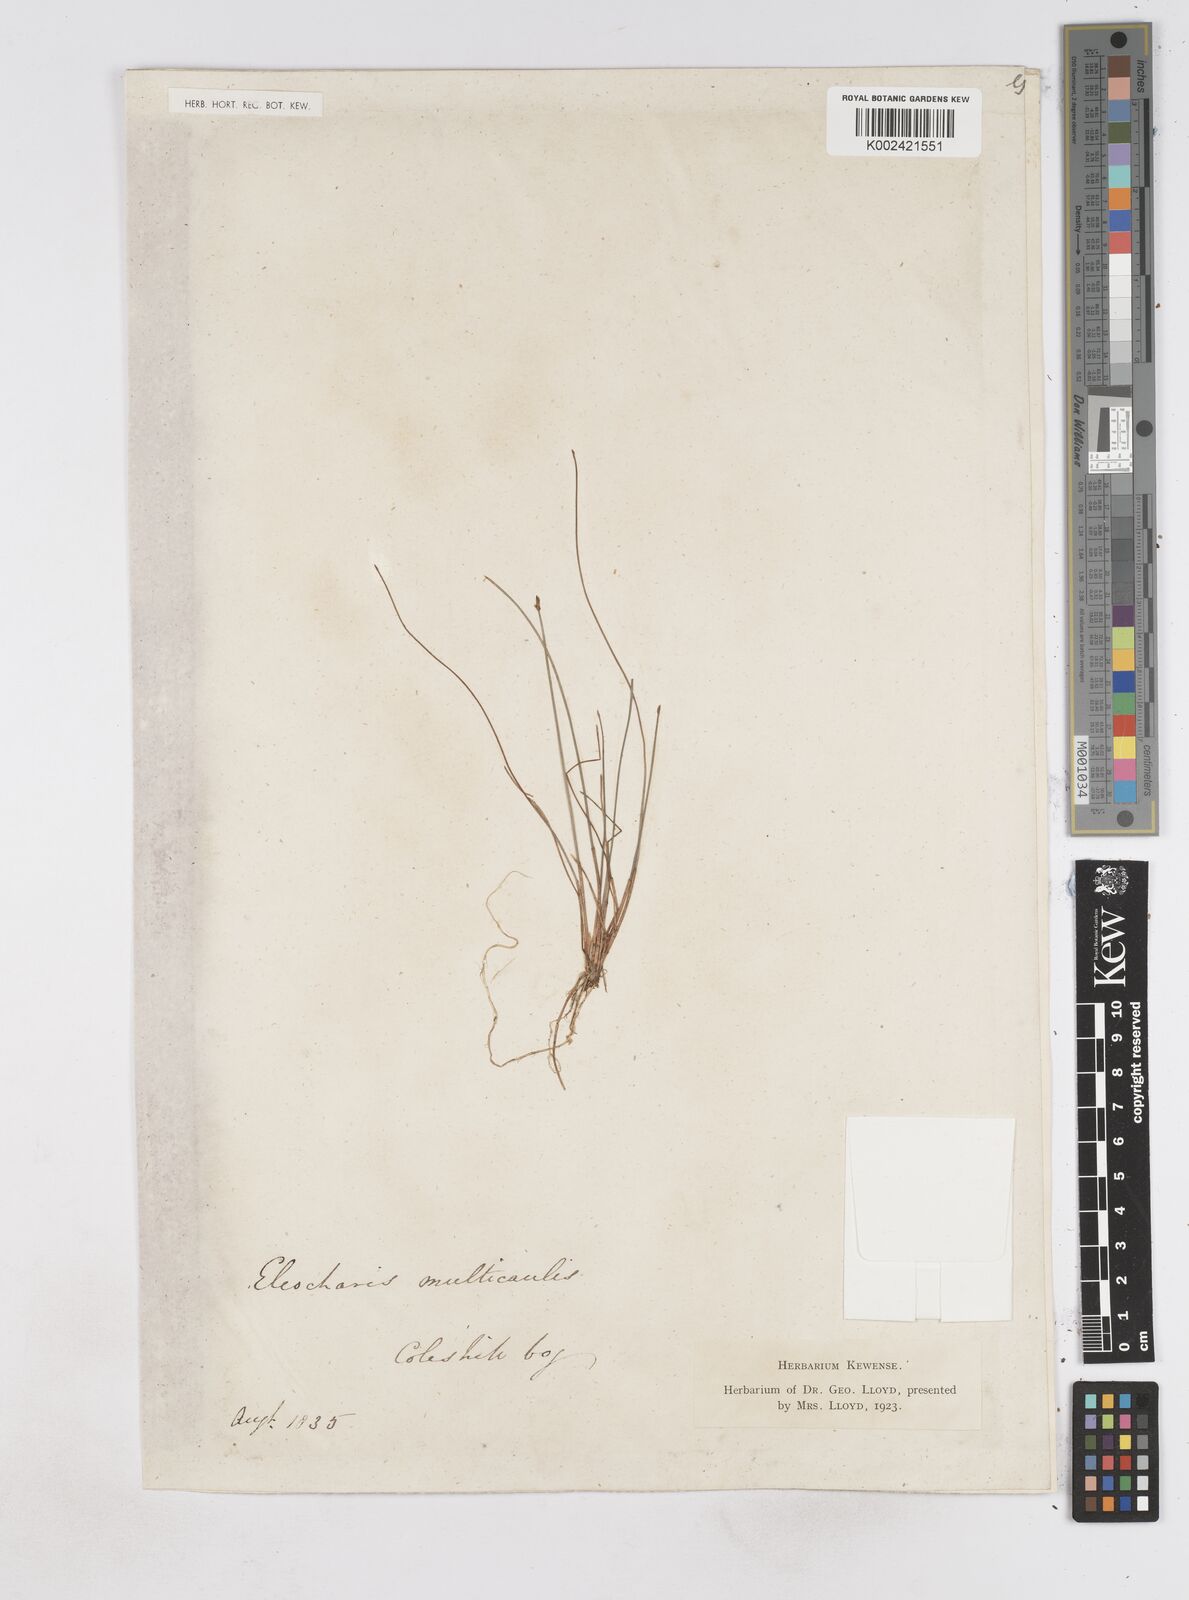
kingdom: Plantae
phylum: Tracheophyta
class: Liliopsida
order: Poales
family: Cyperaceae
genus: Eleocharis
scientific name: Eleocharis multicaulis
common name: Many-stalked spike-rush
